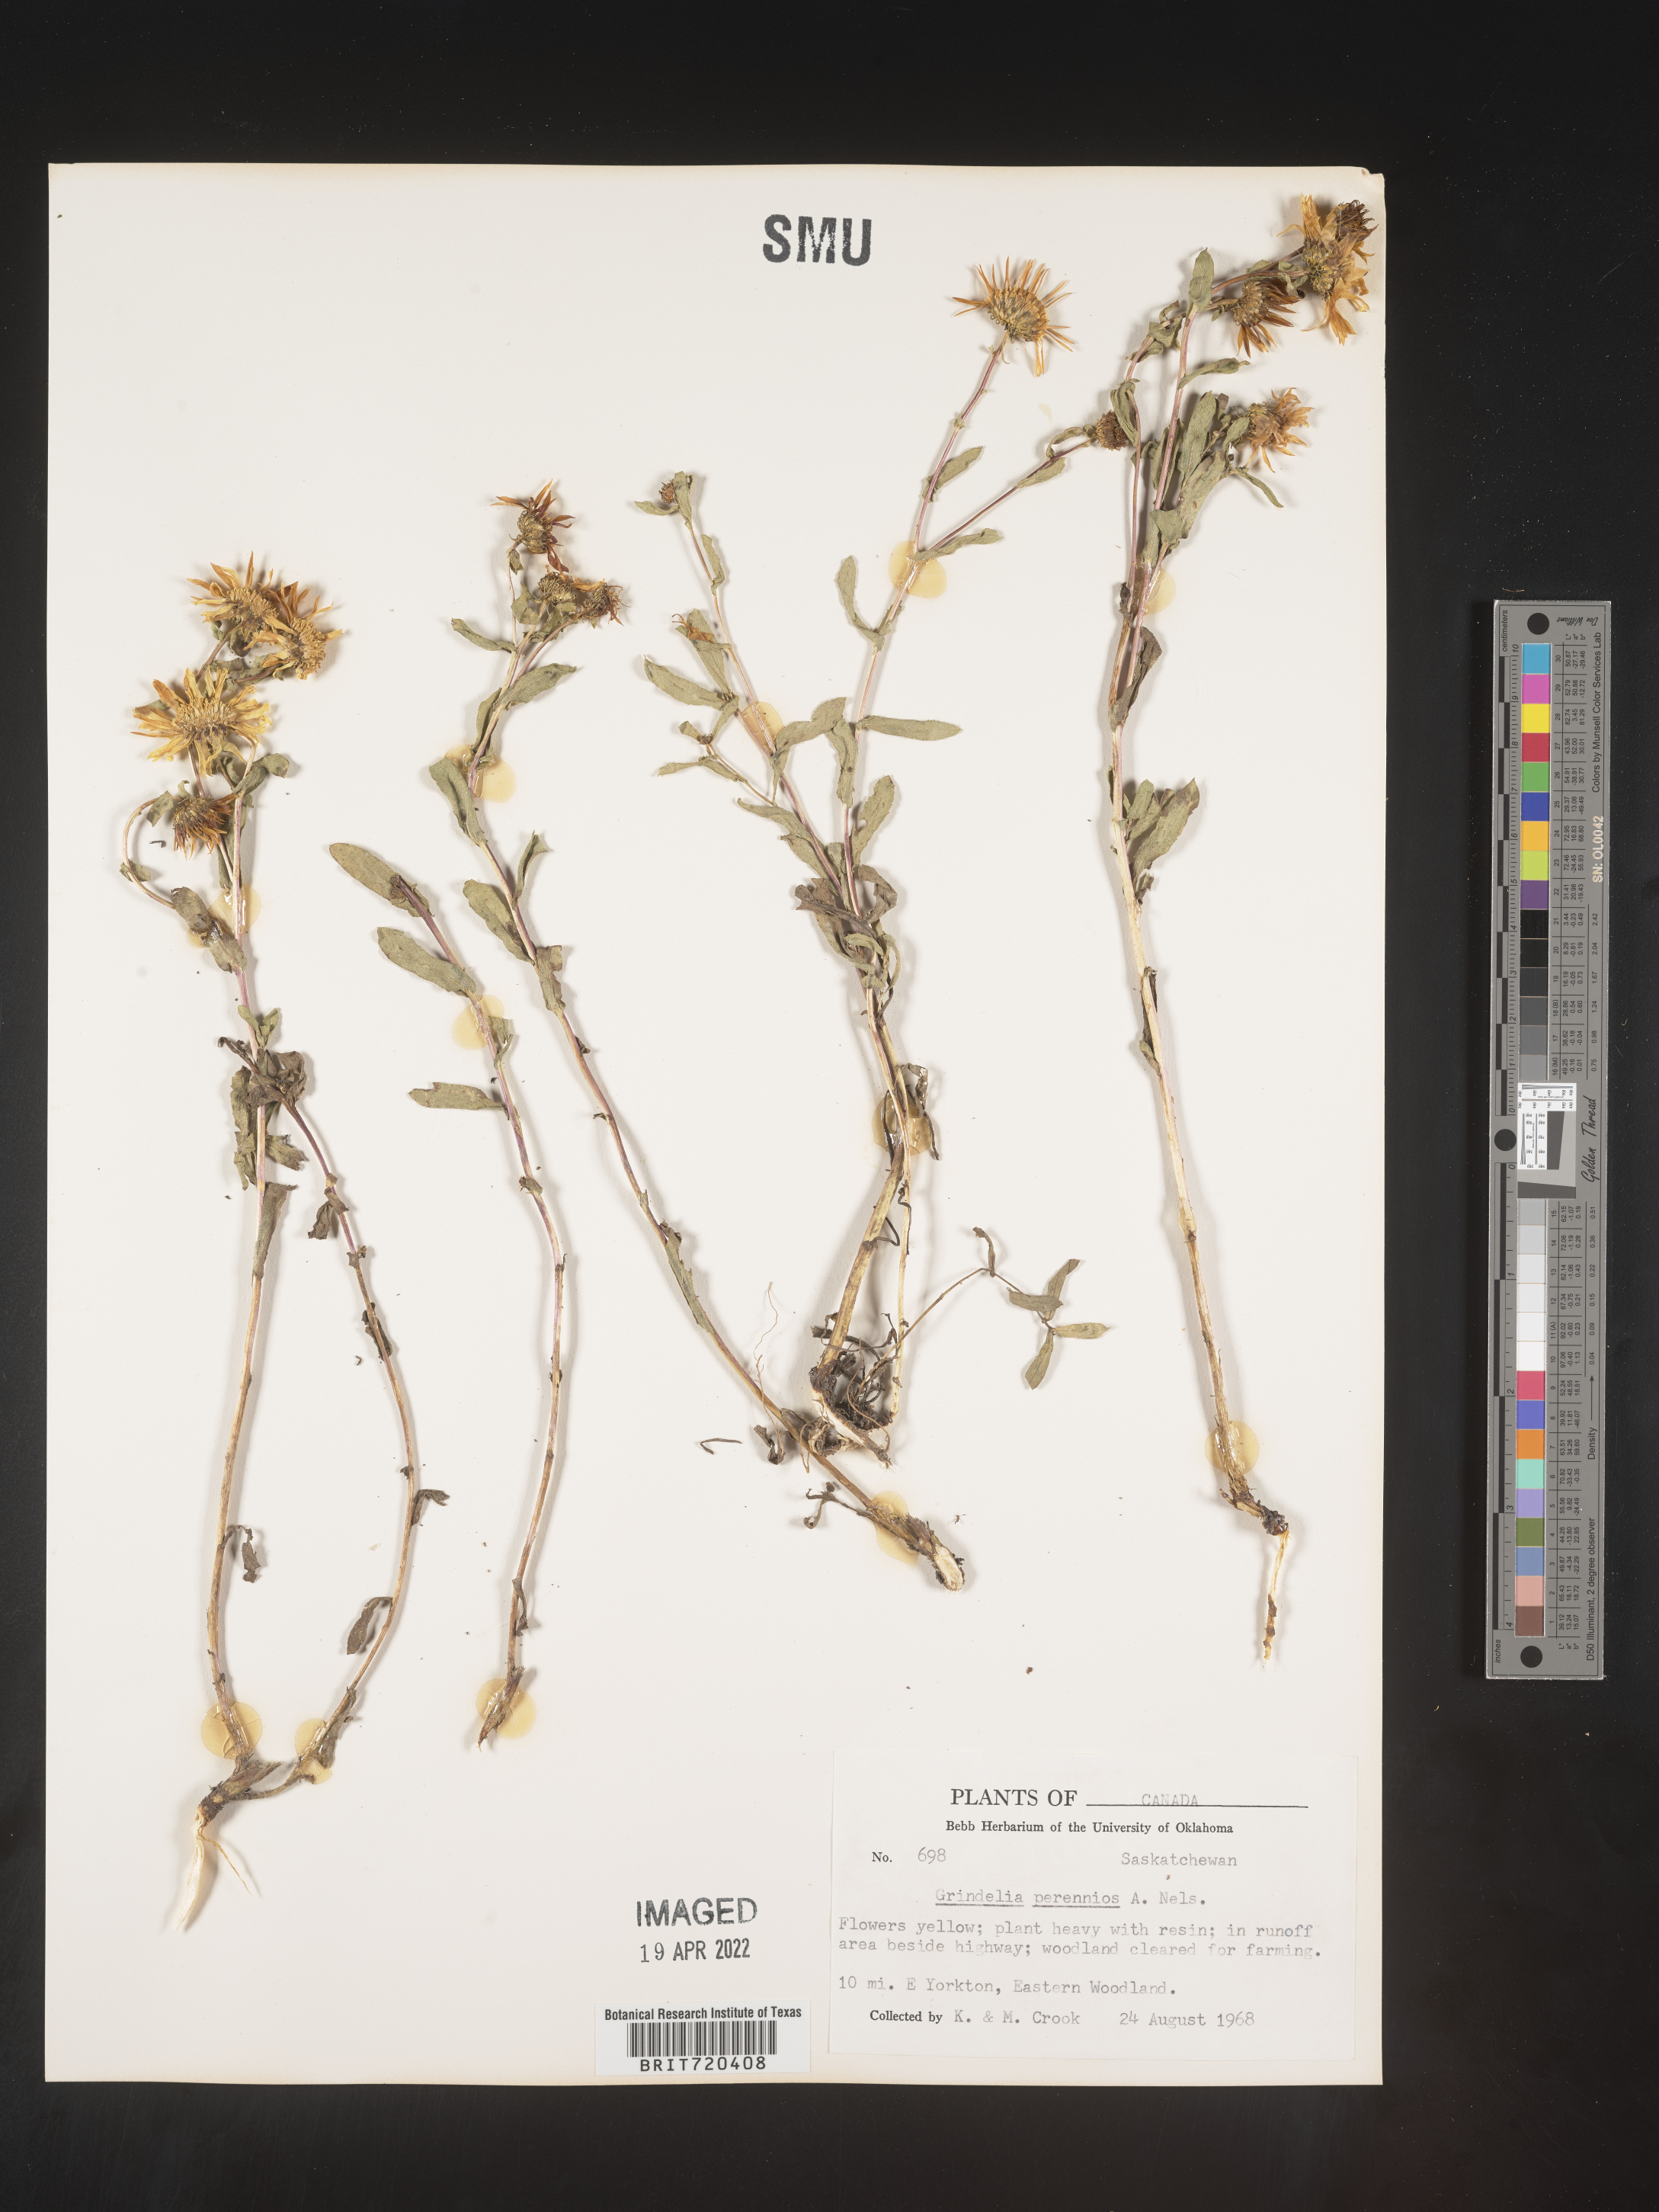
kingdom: Plantae
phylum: Tracheophyta
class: Magnoliopsida
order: Asterales
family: Asteraceae
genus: Grindelia
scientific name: Grindelia squarrosa
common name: Curly-cup gumweed
